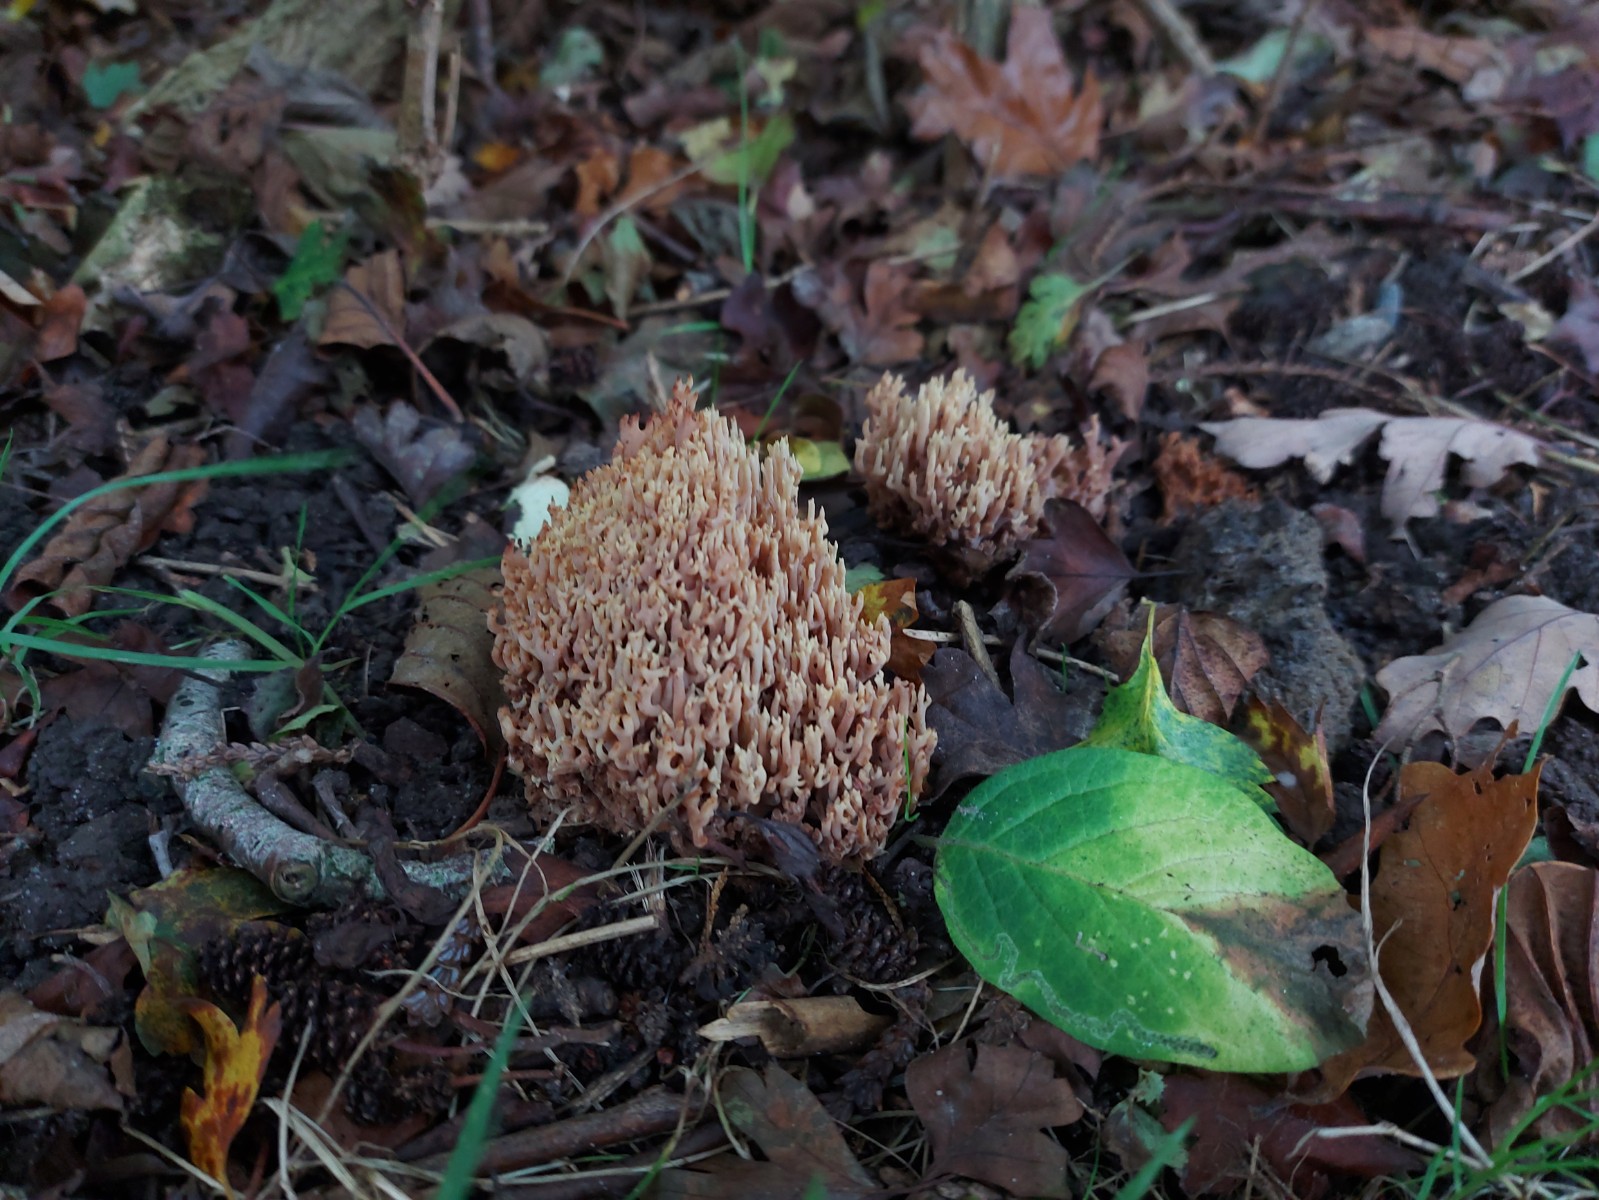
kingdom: Fungi
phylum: Basidiomycota
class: Agaricomycetes
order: Gomphales
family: Gomphaceae
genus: Ramaria
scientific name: Ramaria stricta
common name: rank koralsvamp
